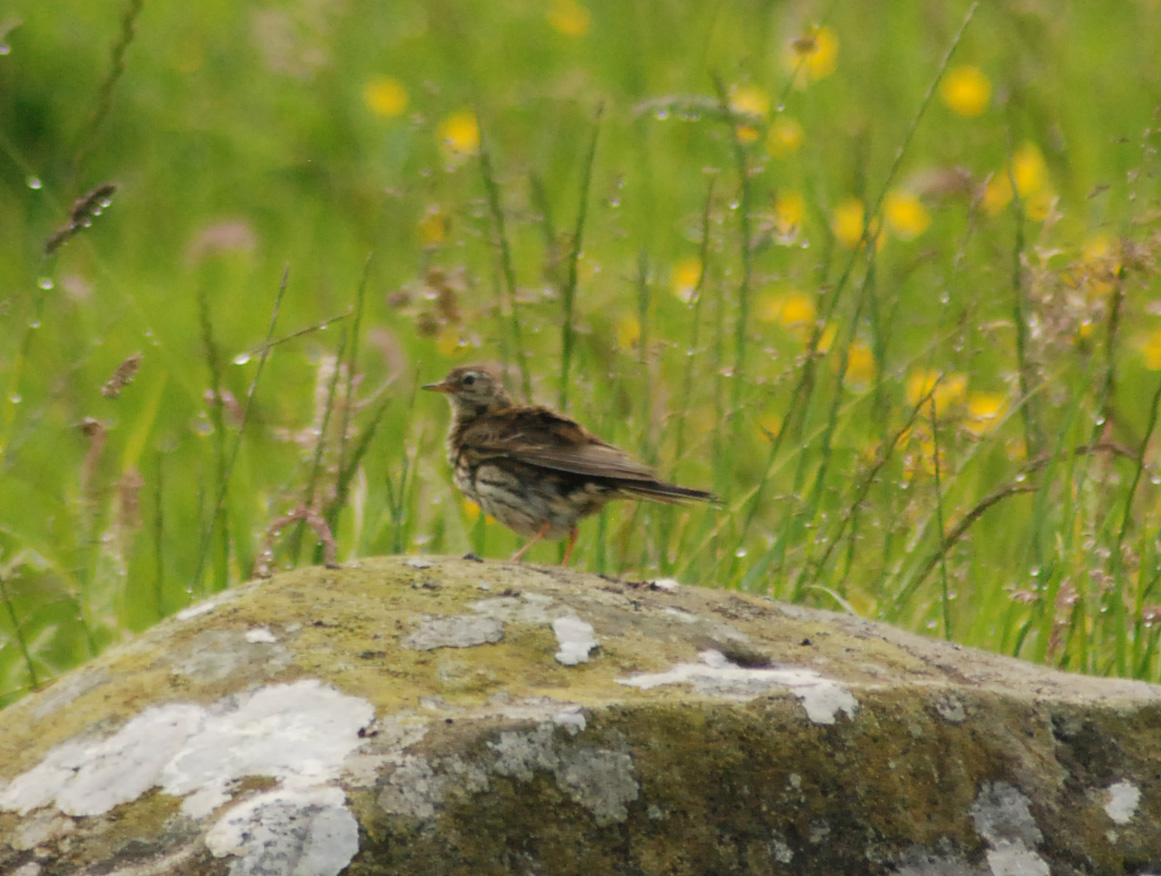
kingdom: Animalia
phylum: Chordata
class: Aves
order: Passeriformes
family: Motacillidae
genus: Anthus
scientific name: Anthus pratensis
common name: Meadow pipit
